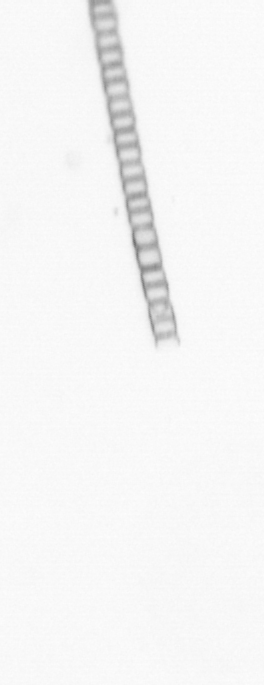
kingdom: Chromista
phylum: Ochrophyta
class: Bacillariophyceae
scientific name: Bacillariophyceae
